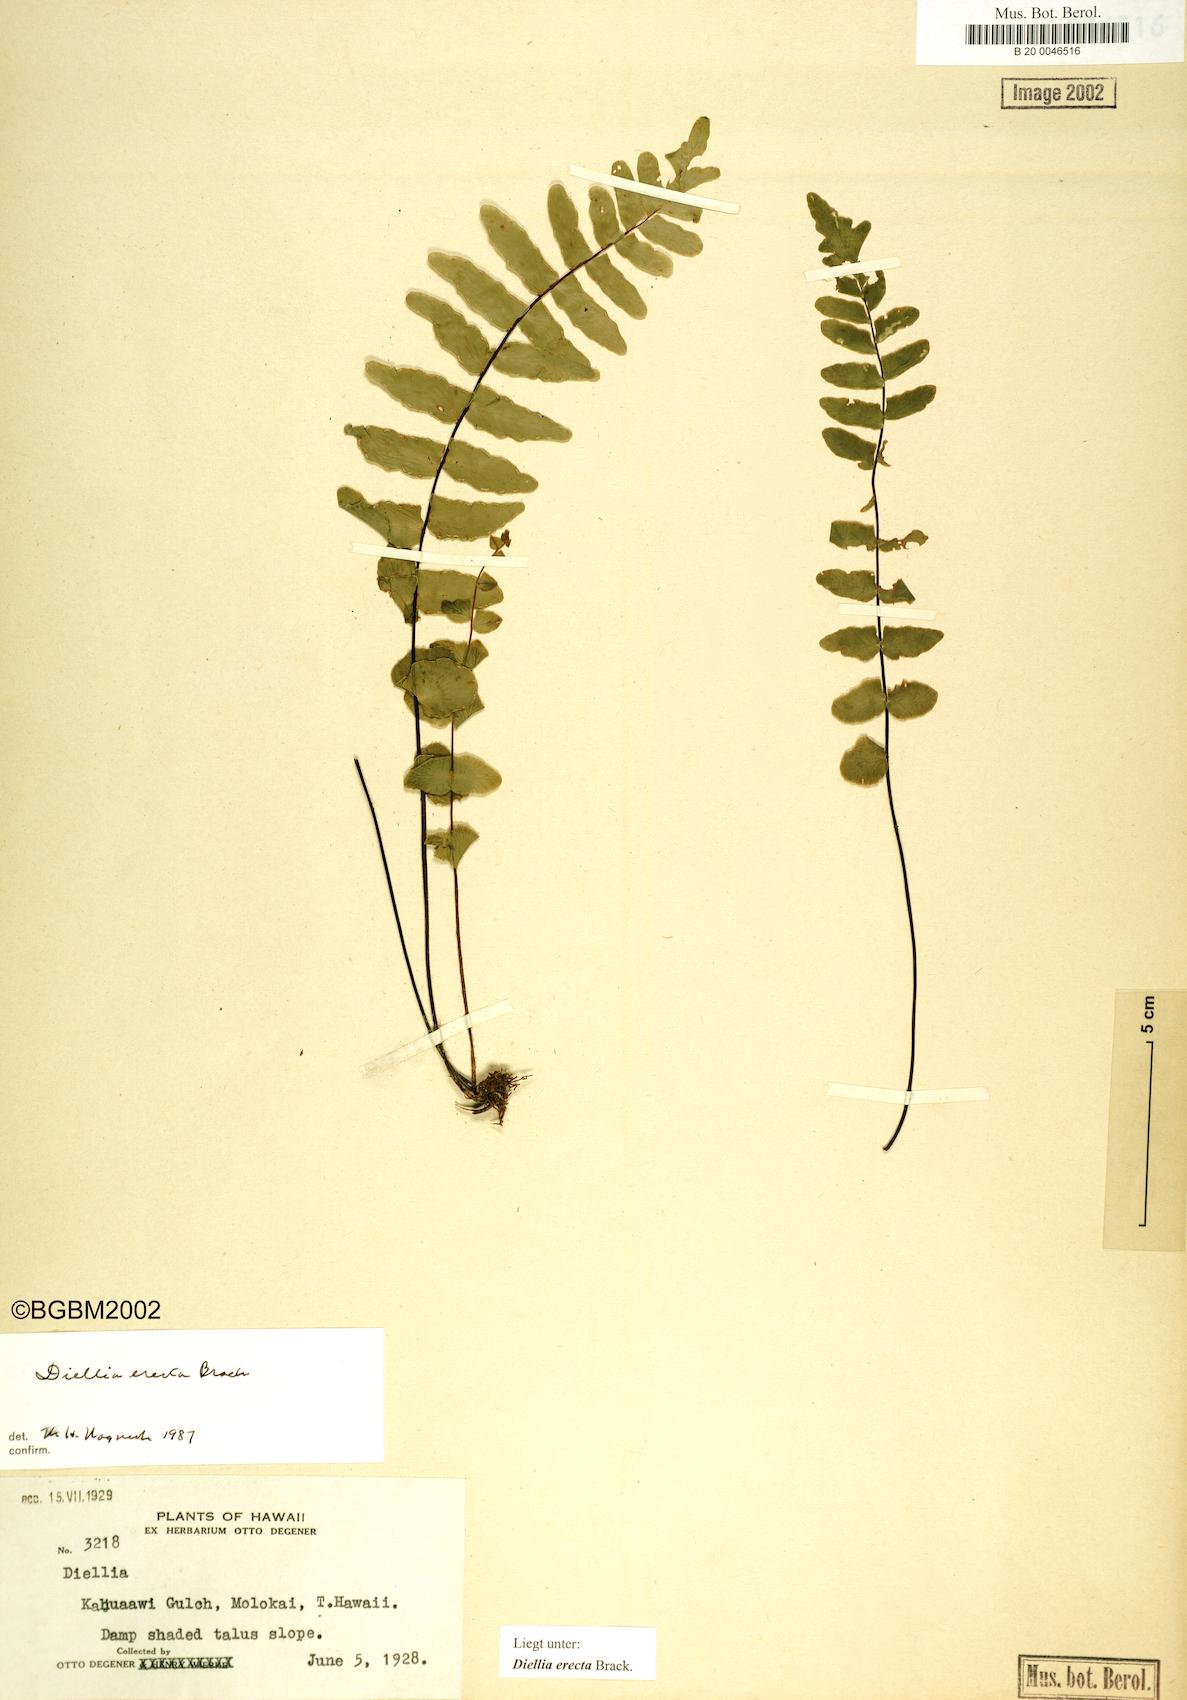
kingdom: Plantae
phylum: Tracheophyta
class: Polypodiopsida
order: Polypodiales
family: Aspleniaceae
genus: Asplenium
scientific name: Asplenium dielerectum
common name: Erect island spleenwort
